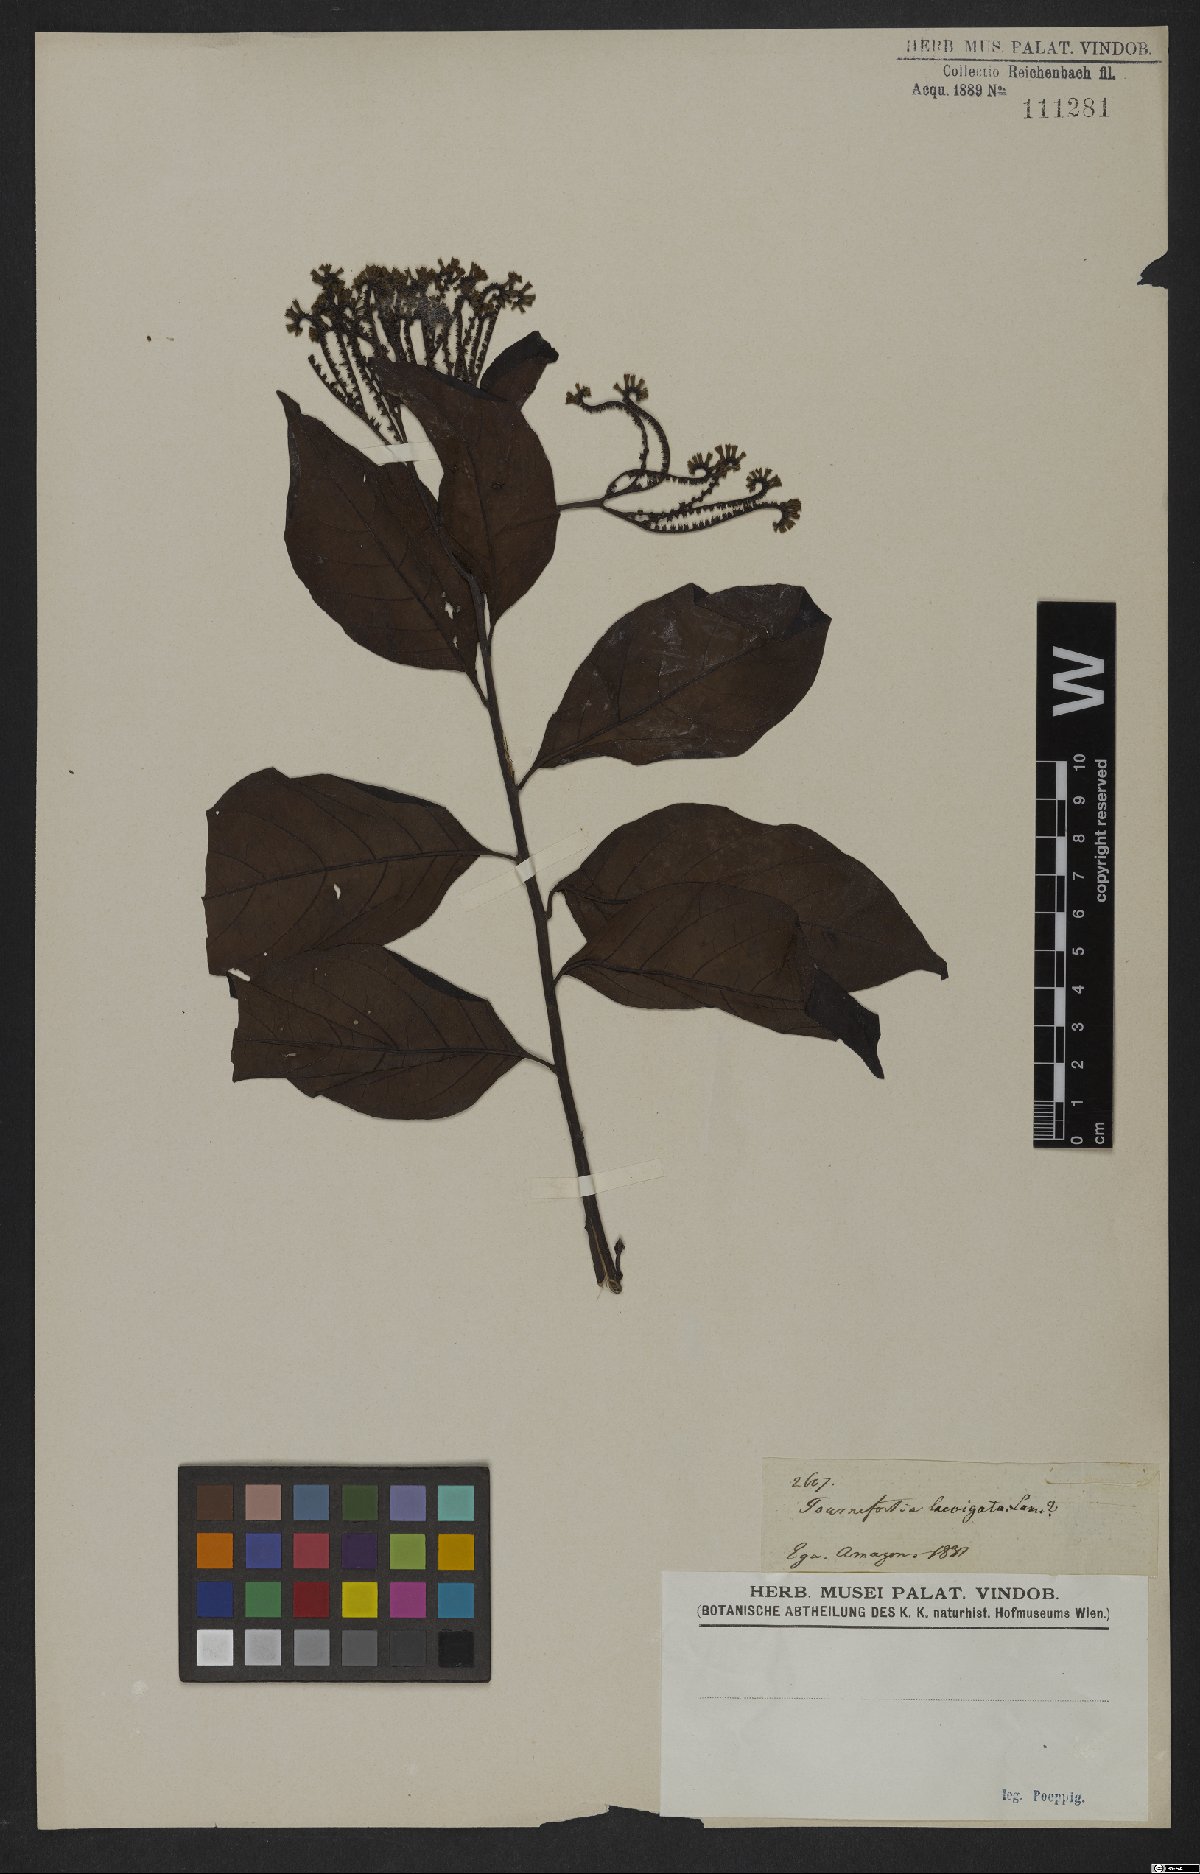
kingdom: Plantae
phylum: Tracheophyta
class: Magnoliopsida
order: Boraginales
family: Heliotropiaceae
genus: Heliotropium
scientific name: Heliotropium laevigatum
